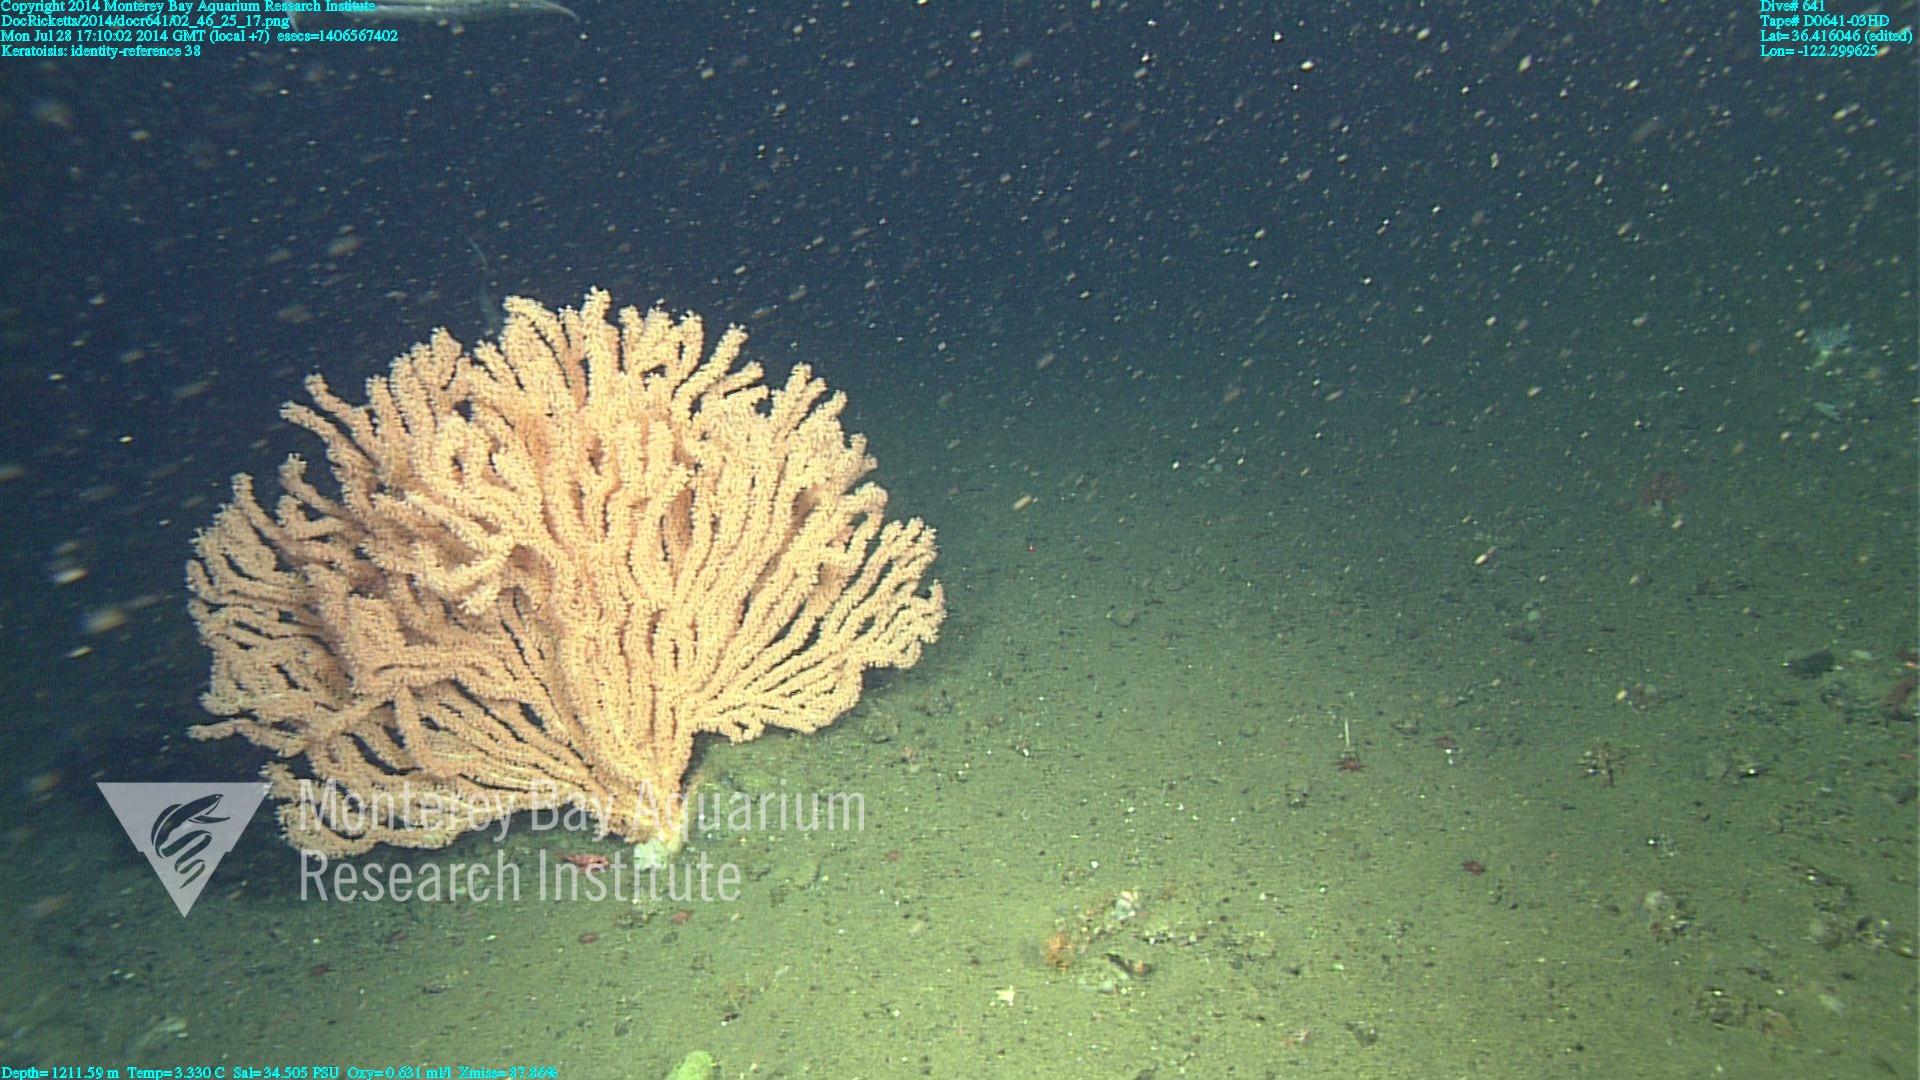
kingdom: Animalia
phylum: Cnidaria
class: Anthozoa
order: Scleralcyonacea
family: Keratoisididae
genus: Keratoisis
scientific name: Keratoisis
